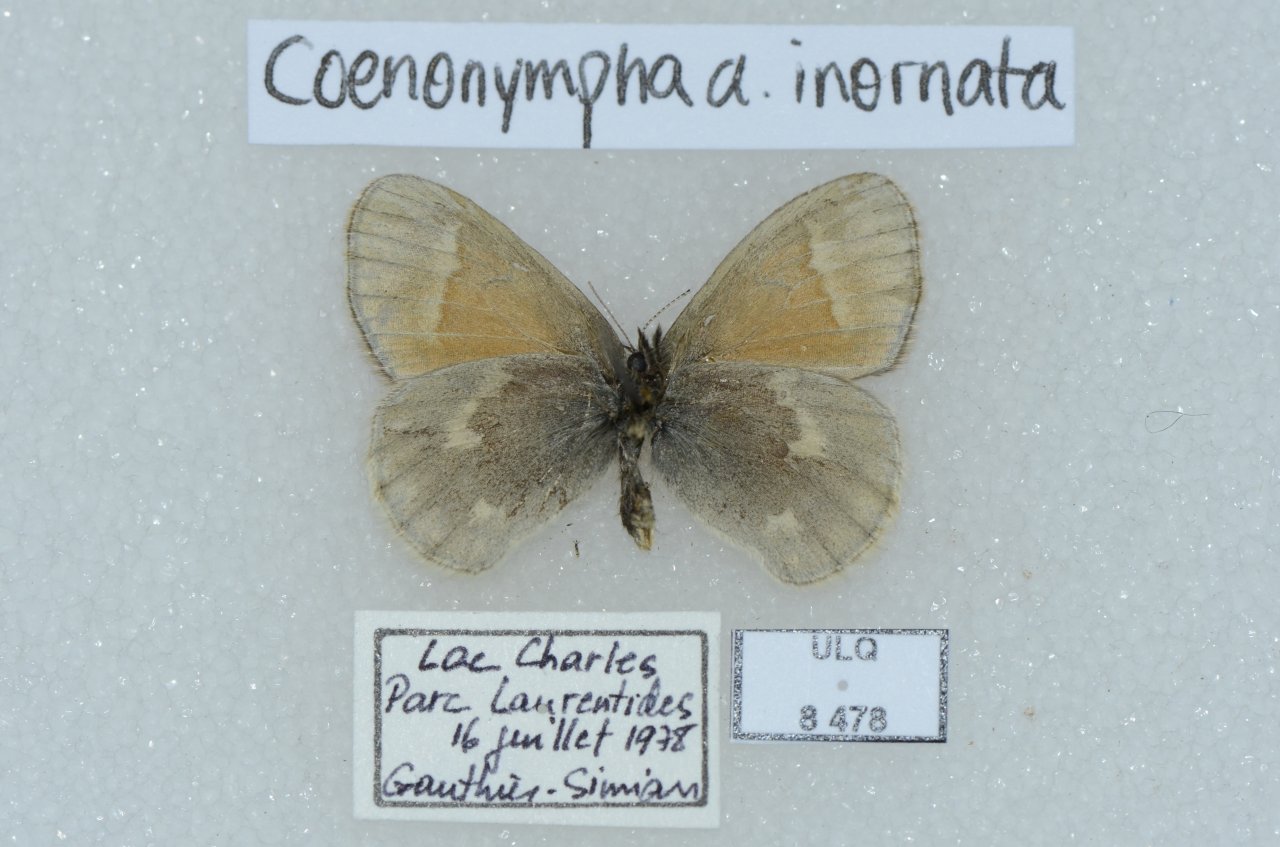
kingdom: Animalia
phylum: Arthropoda
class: Insecta
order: Lepidoptera
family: Nymphalidae
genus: Coenonympha
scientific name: Coenonympha tullia
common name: Large Heath
